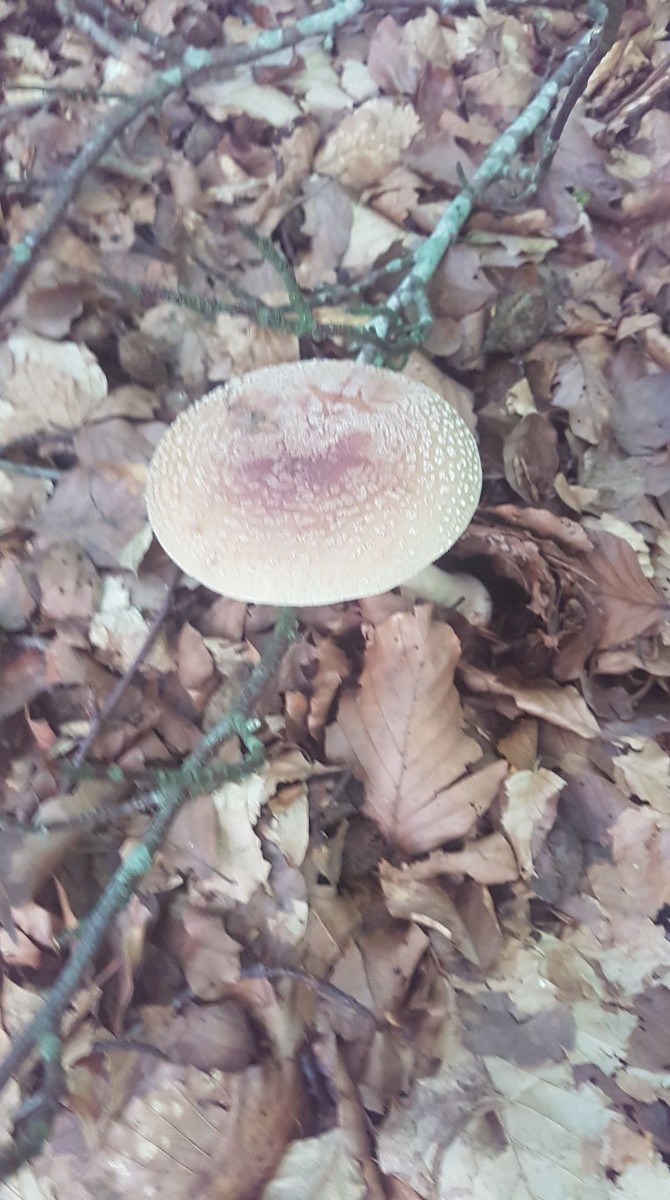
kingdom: Fungi
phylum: Basidiomycota
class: Agaricomycetes
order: Agaricales
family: Amanitaceae
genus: Amanita
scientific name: Amanita rubescens
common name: rødmende fluesvamp
